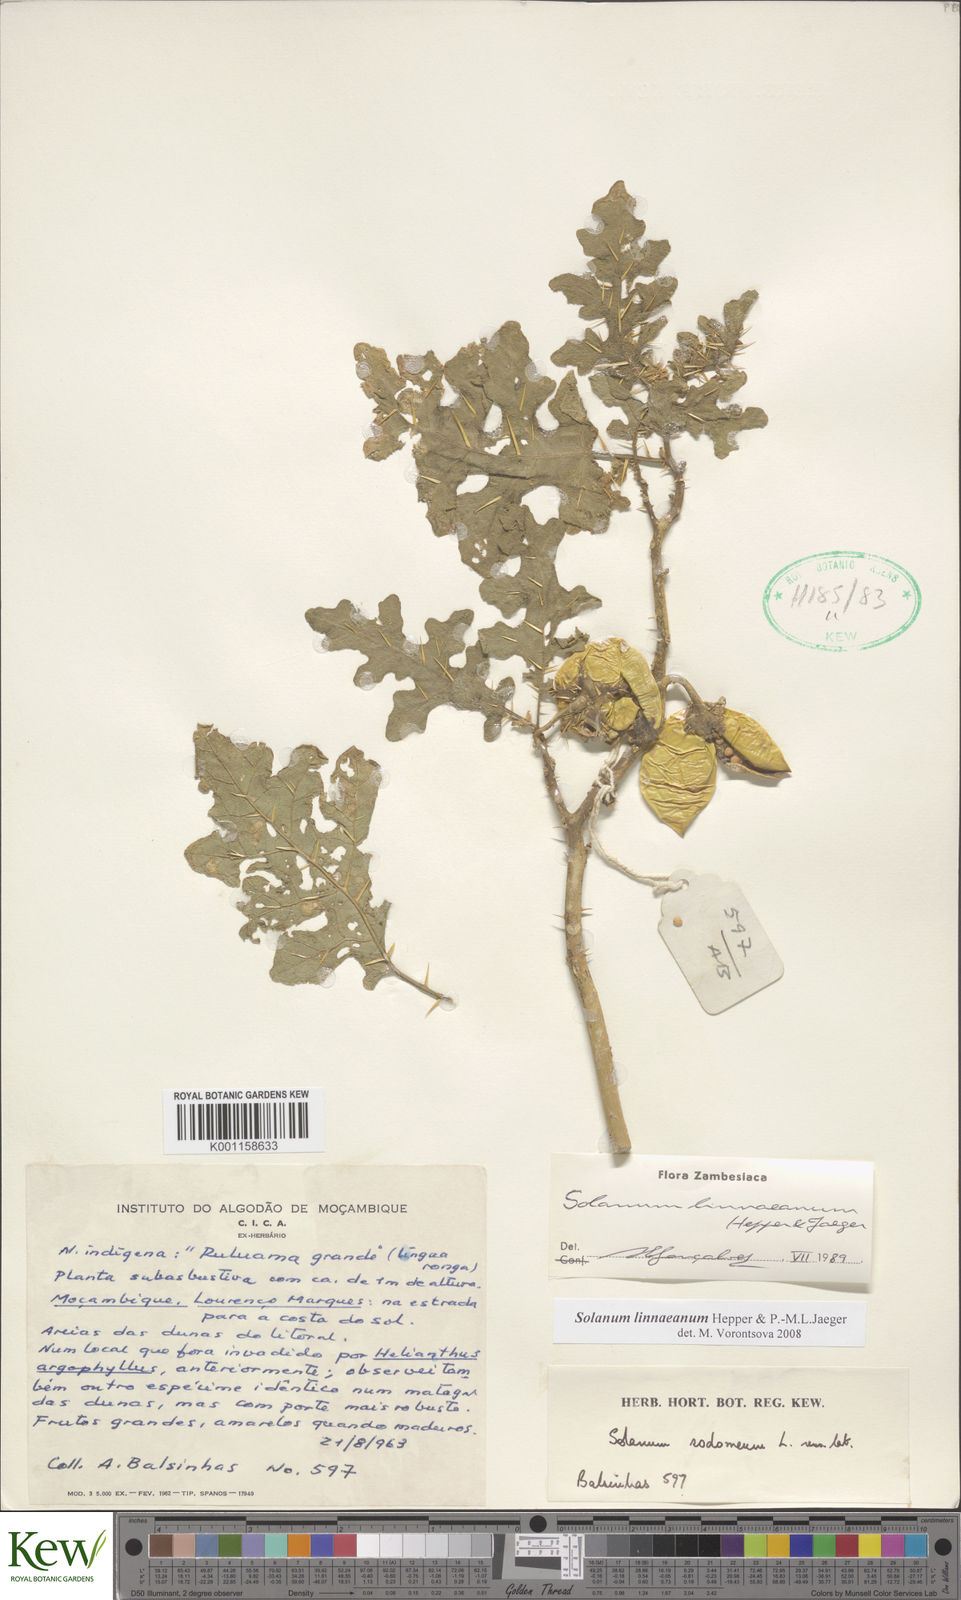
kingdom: Plantae
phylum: Tracheophyta
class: Magnoliopsida
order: Solanales
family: Solanaceae
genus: Solanum
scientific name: Solanum linnaeanum
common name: Nightshade
